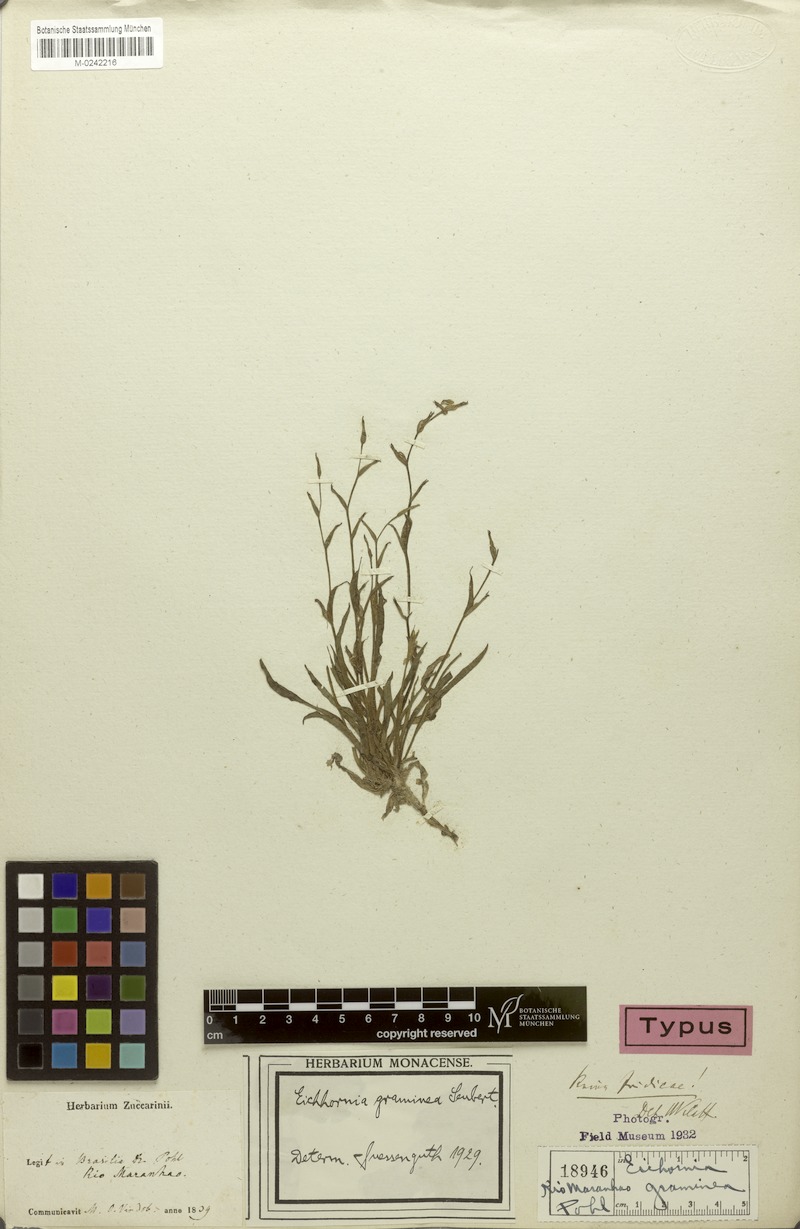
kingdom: Plantae
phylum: Tracheophyta
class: Liliopsida
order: Commelinales
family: Pontederiaceae
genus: Heteranthera
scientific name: Heteranthera seubertiana
